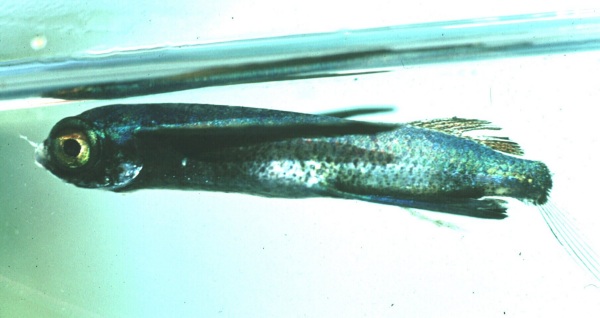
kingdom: Animalia
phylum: Chordata
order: Beloniformes
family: Exocoetidae
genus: Prognichthys
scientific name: Prognichthys sealei
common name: Sailor flyingfish
